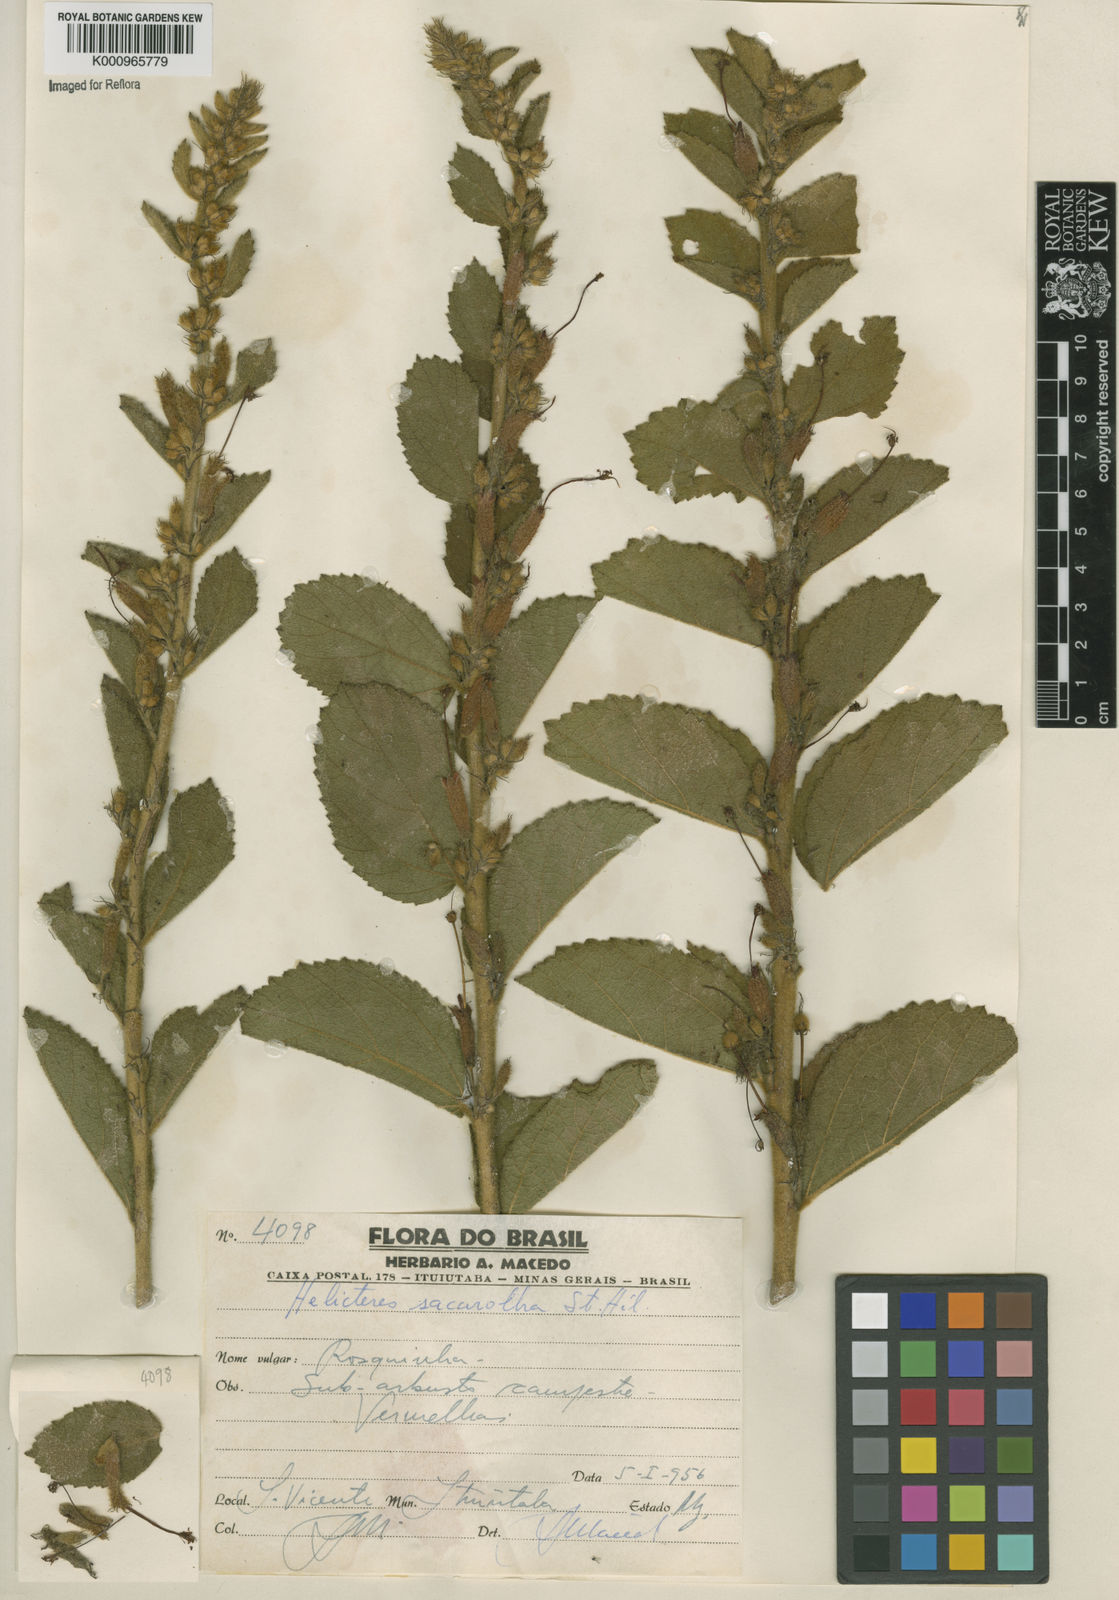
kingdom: Plantae
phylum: Tracheophyta
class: Magnoliopsida
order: Malvales
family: Malvaceae
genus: Helicteres
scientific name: Helicteres
